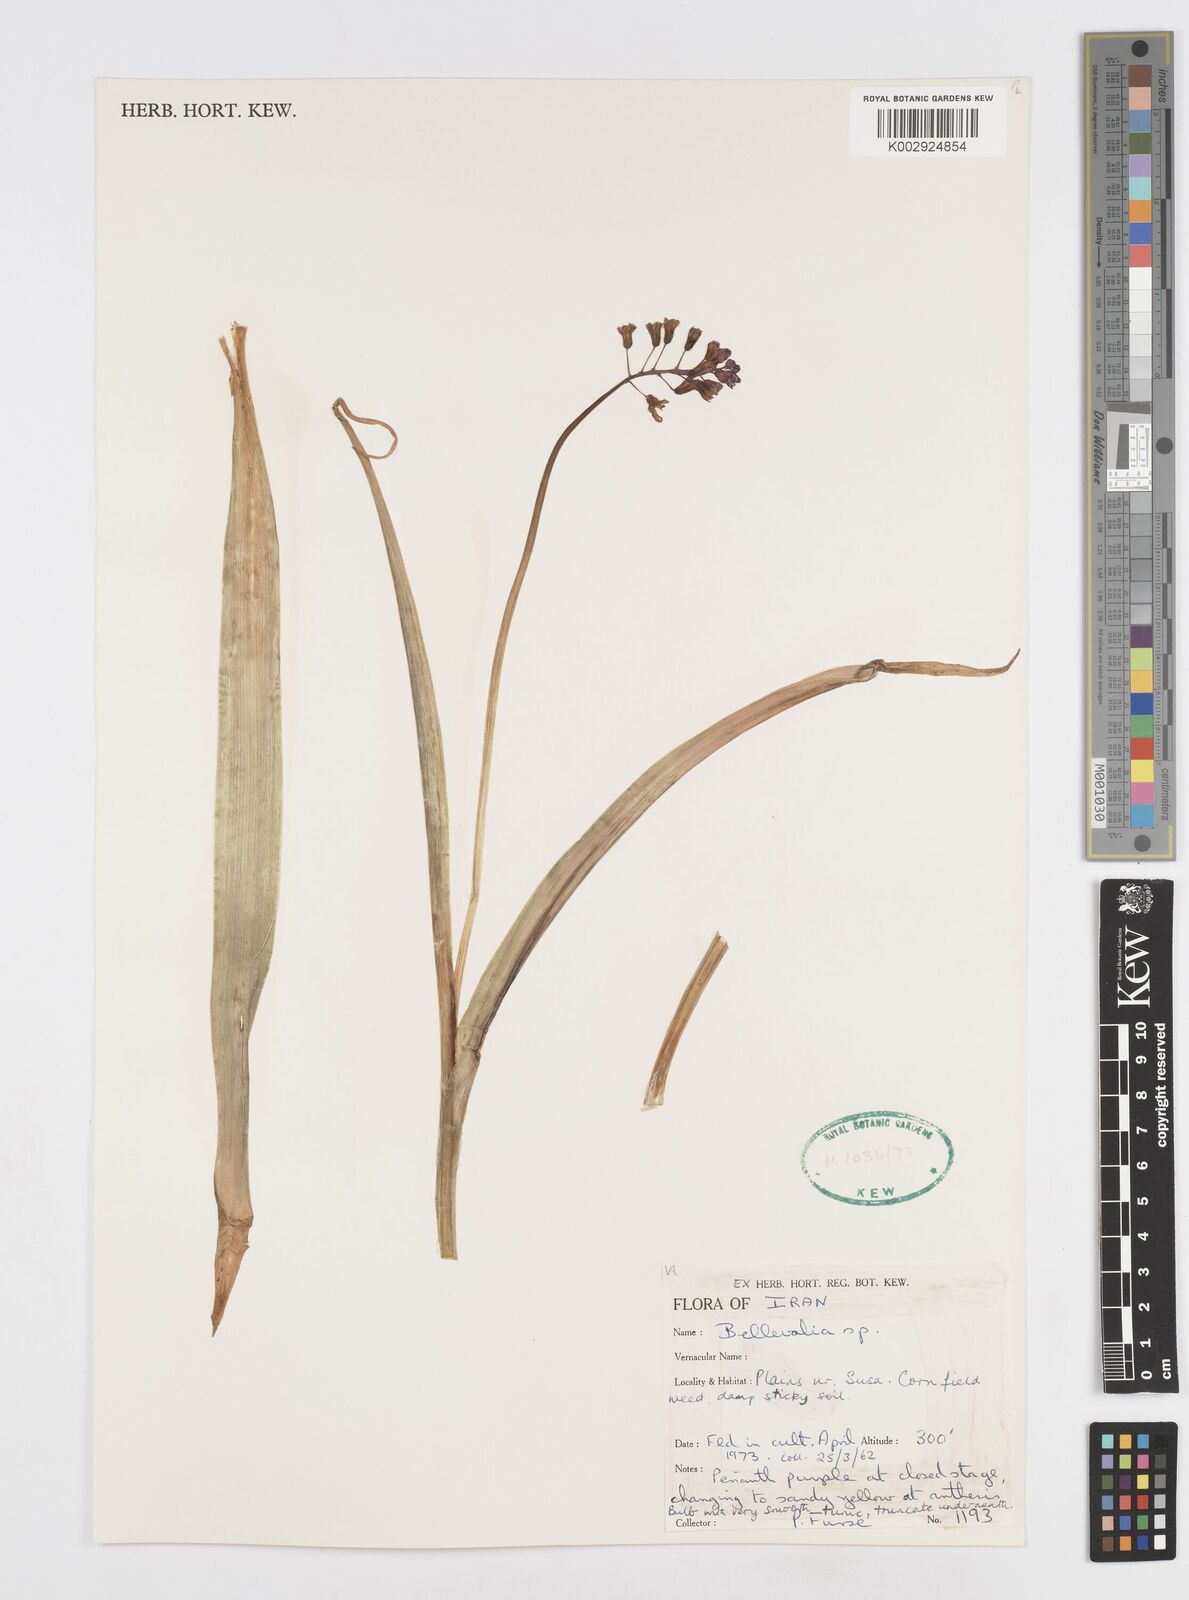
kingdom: Plantae
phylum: Tracheophyta
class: Liliopsida
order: Asparagales
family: Asparagaceae
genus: Bellevalia
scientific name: Bellevalia
